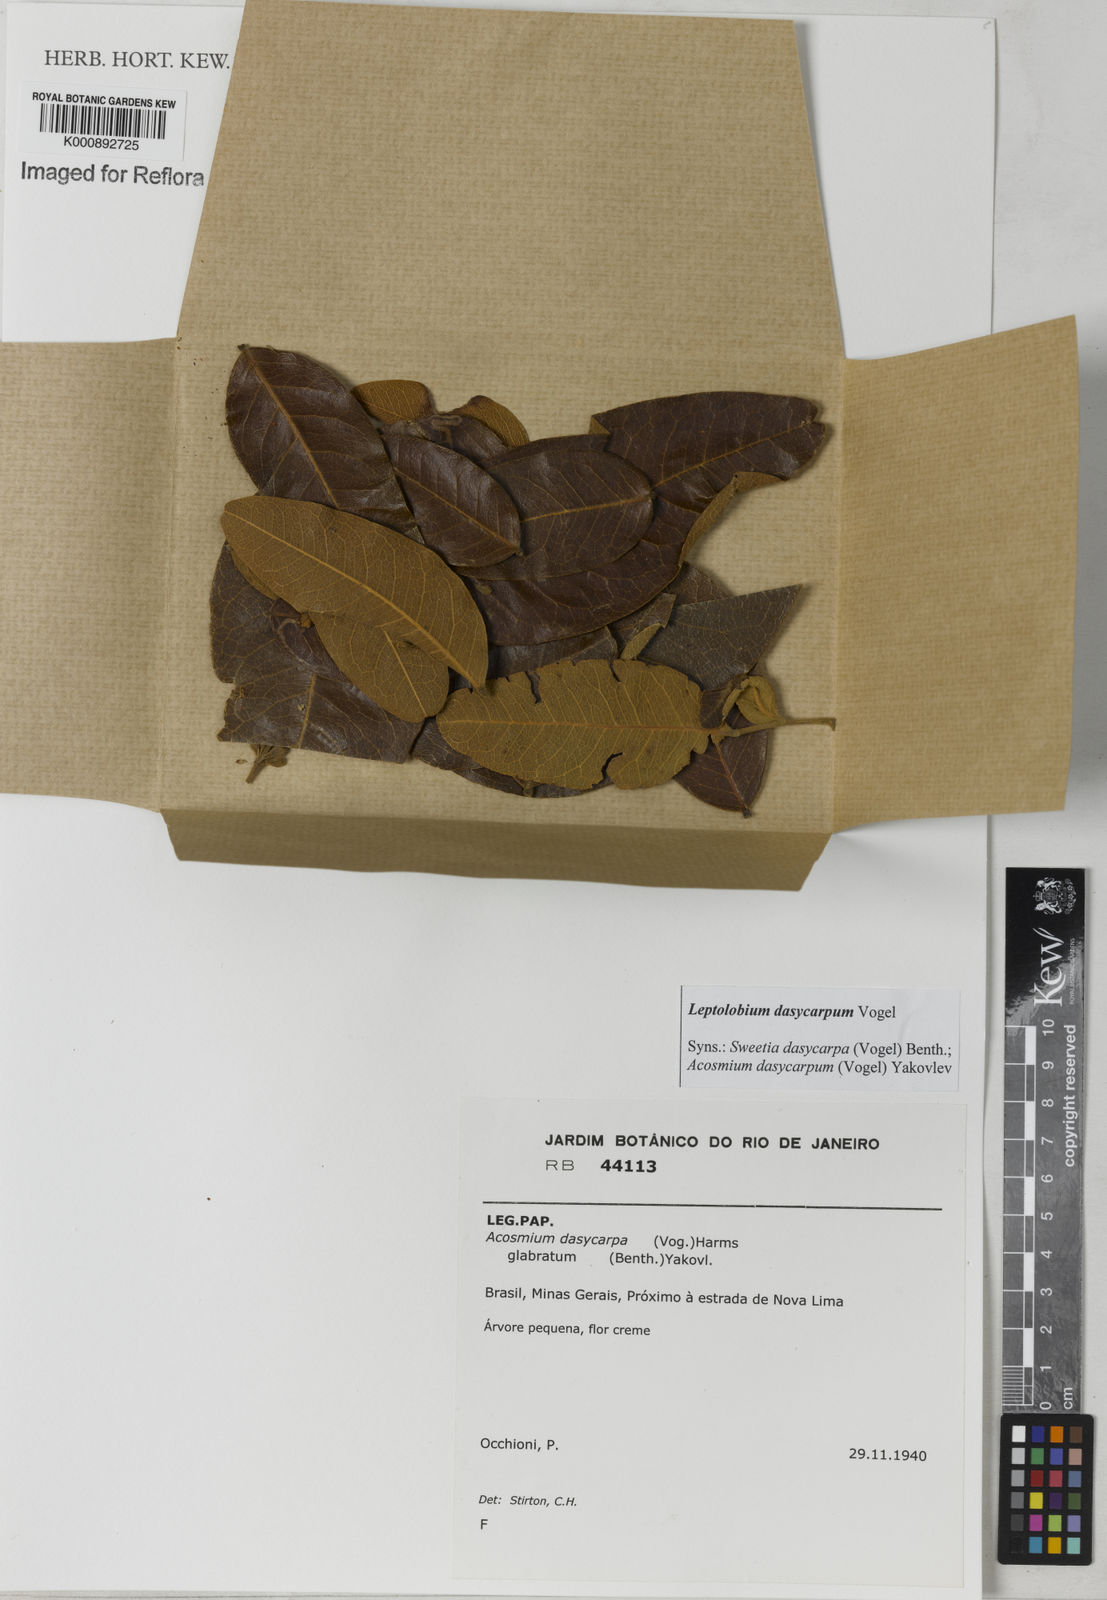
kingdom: Plantae
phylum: Tracheophyta
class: Magnoliopsida
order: Fabales
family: Fabaceae
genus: Leptolobium
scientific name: Leptolobium
